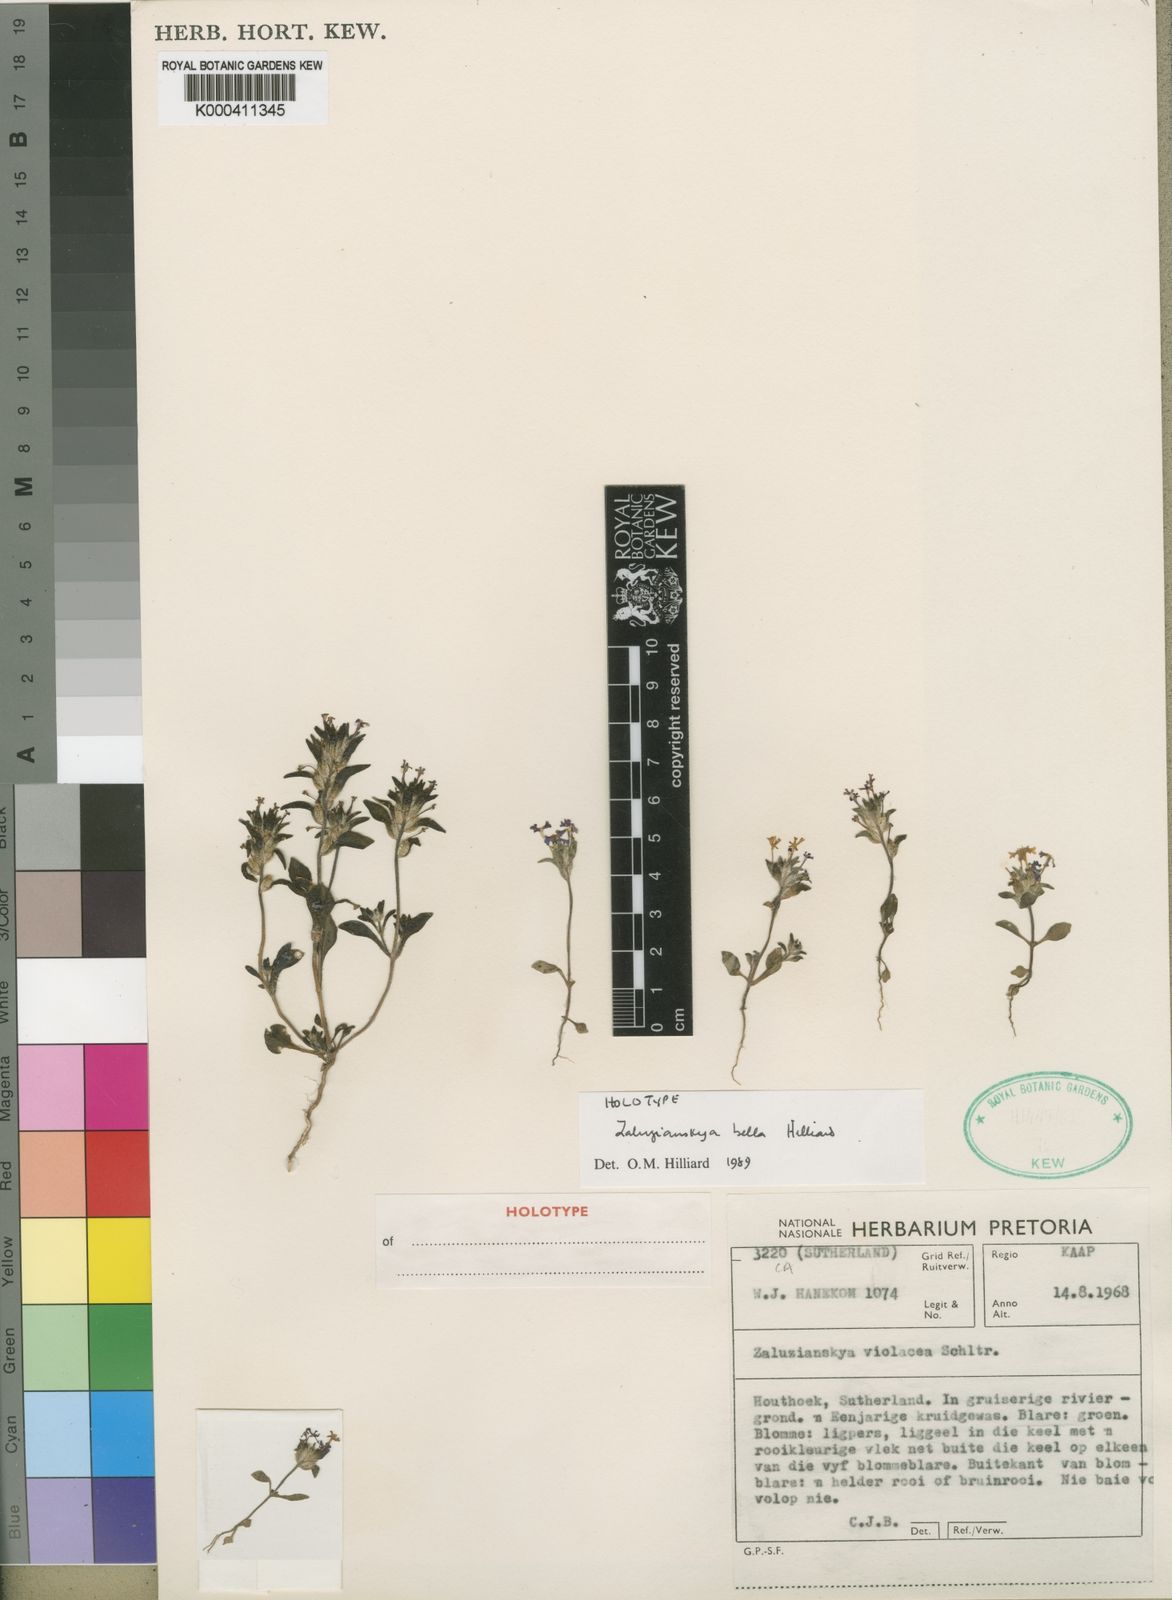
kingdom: Plantae
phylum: Tracheophyta
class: Magnoliopsida
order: Lamiales
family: Scrophulariaceae
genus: Zaluzianskya
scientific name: Zaluzianskya bella
